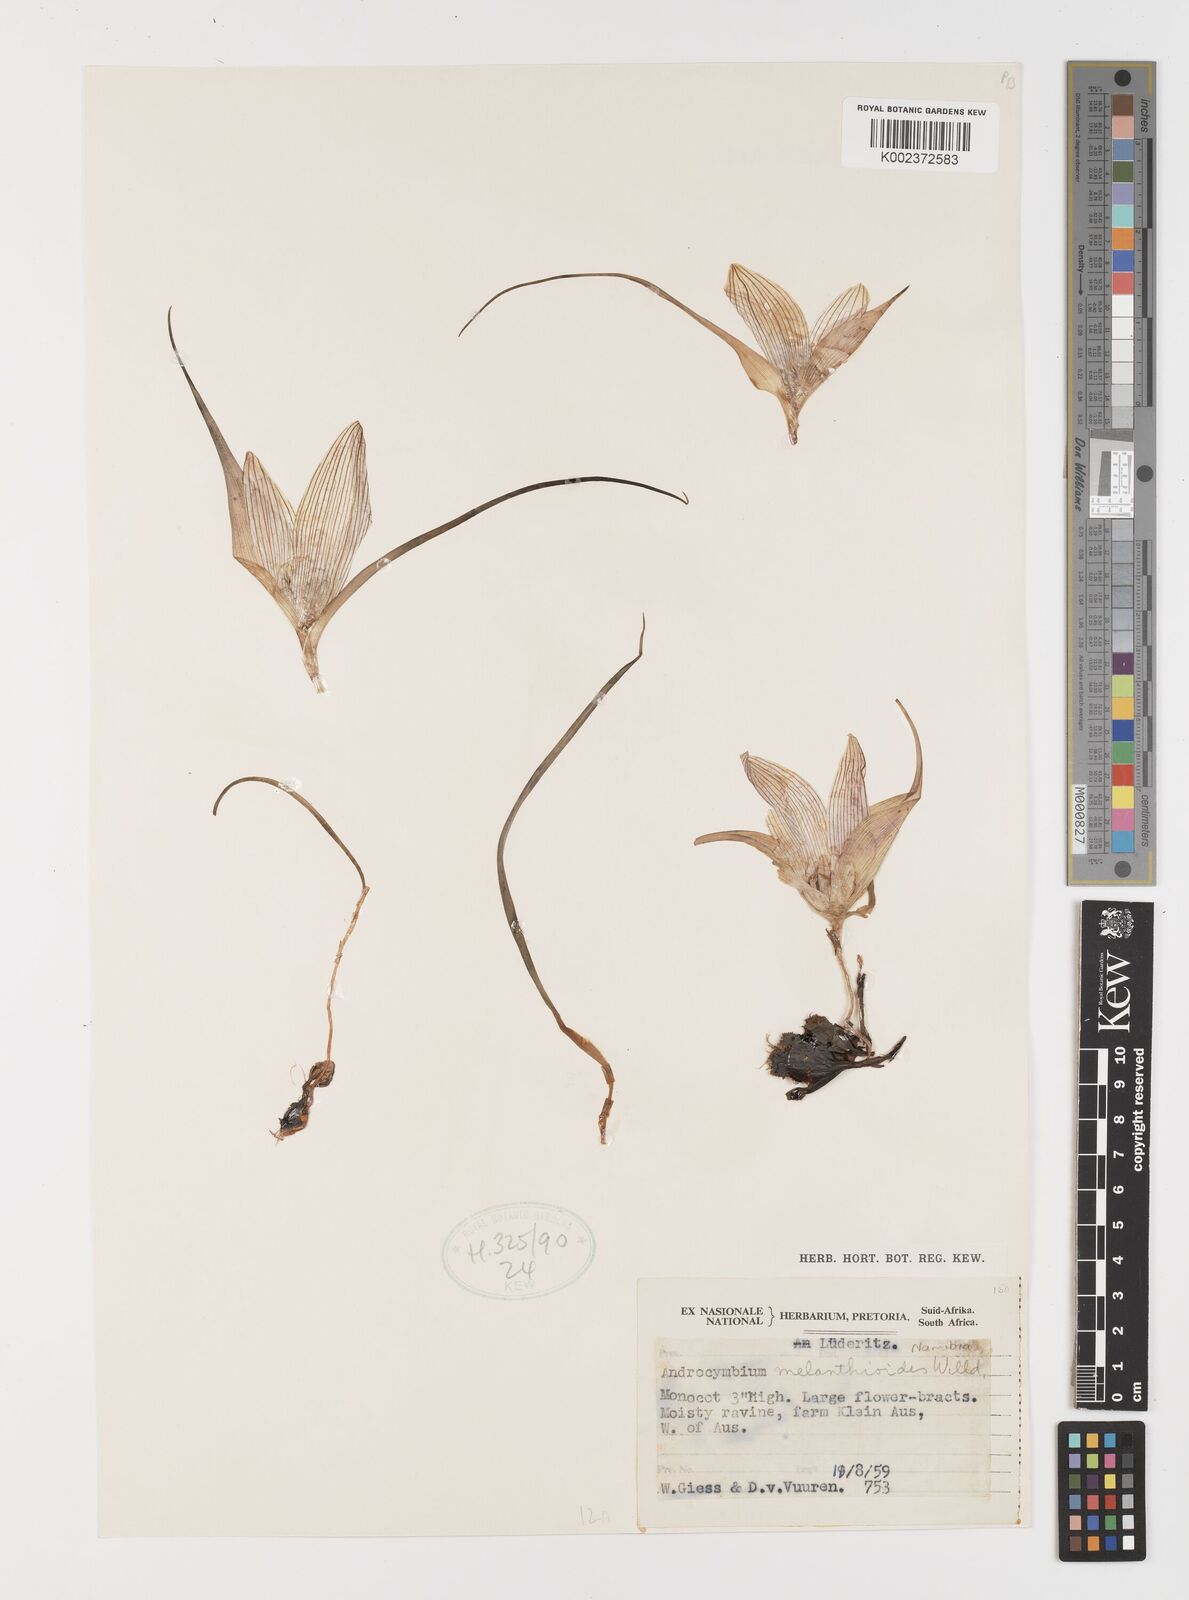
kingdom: Plantae
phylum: Tracheophyta
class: Liliopsida
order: Liliales
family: Colchicaceae
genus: Colchicum
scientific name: Colchicum melanthioides
